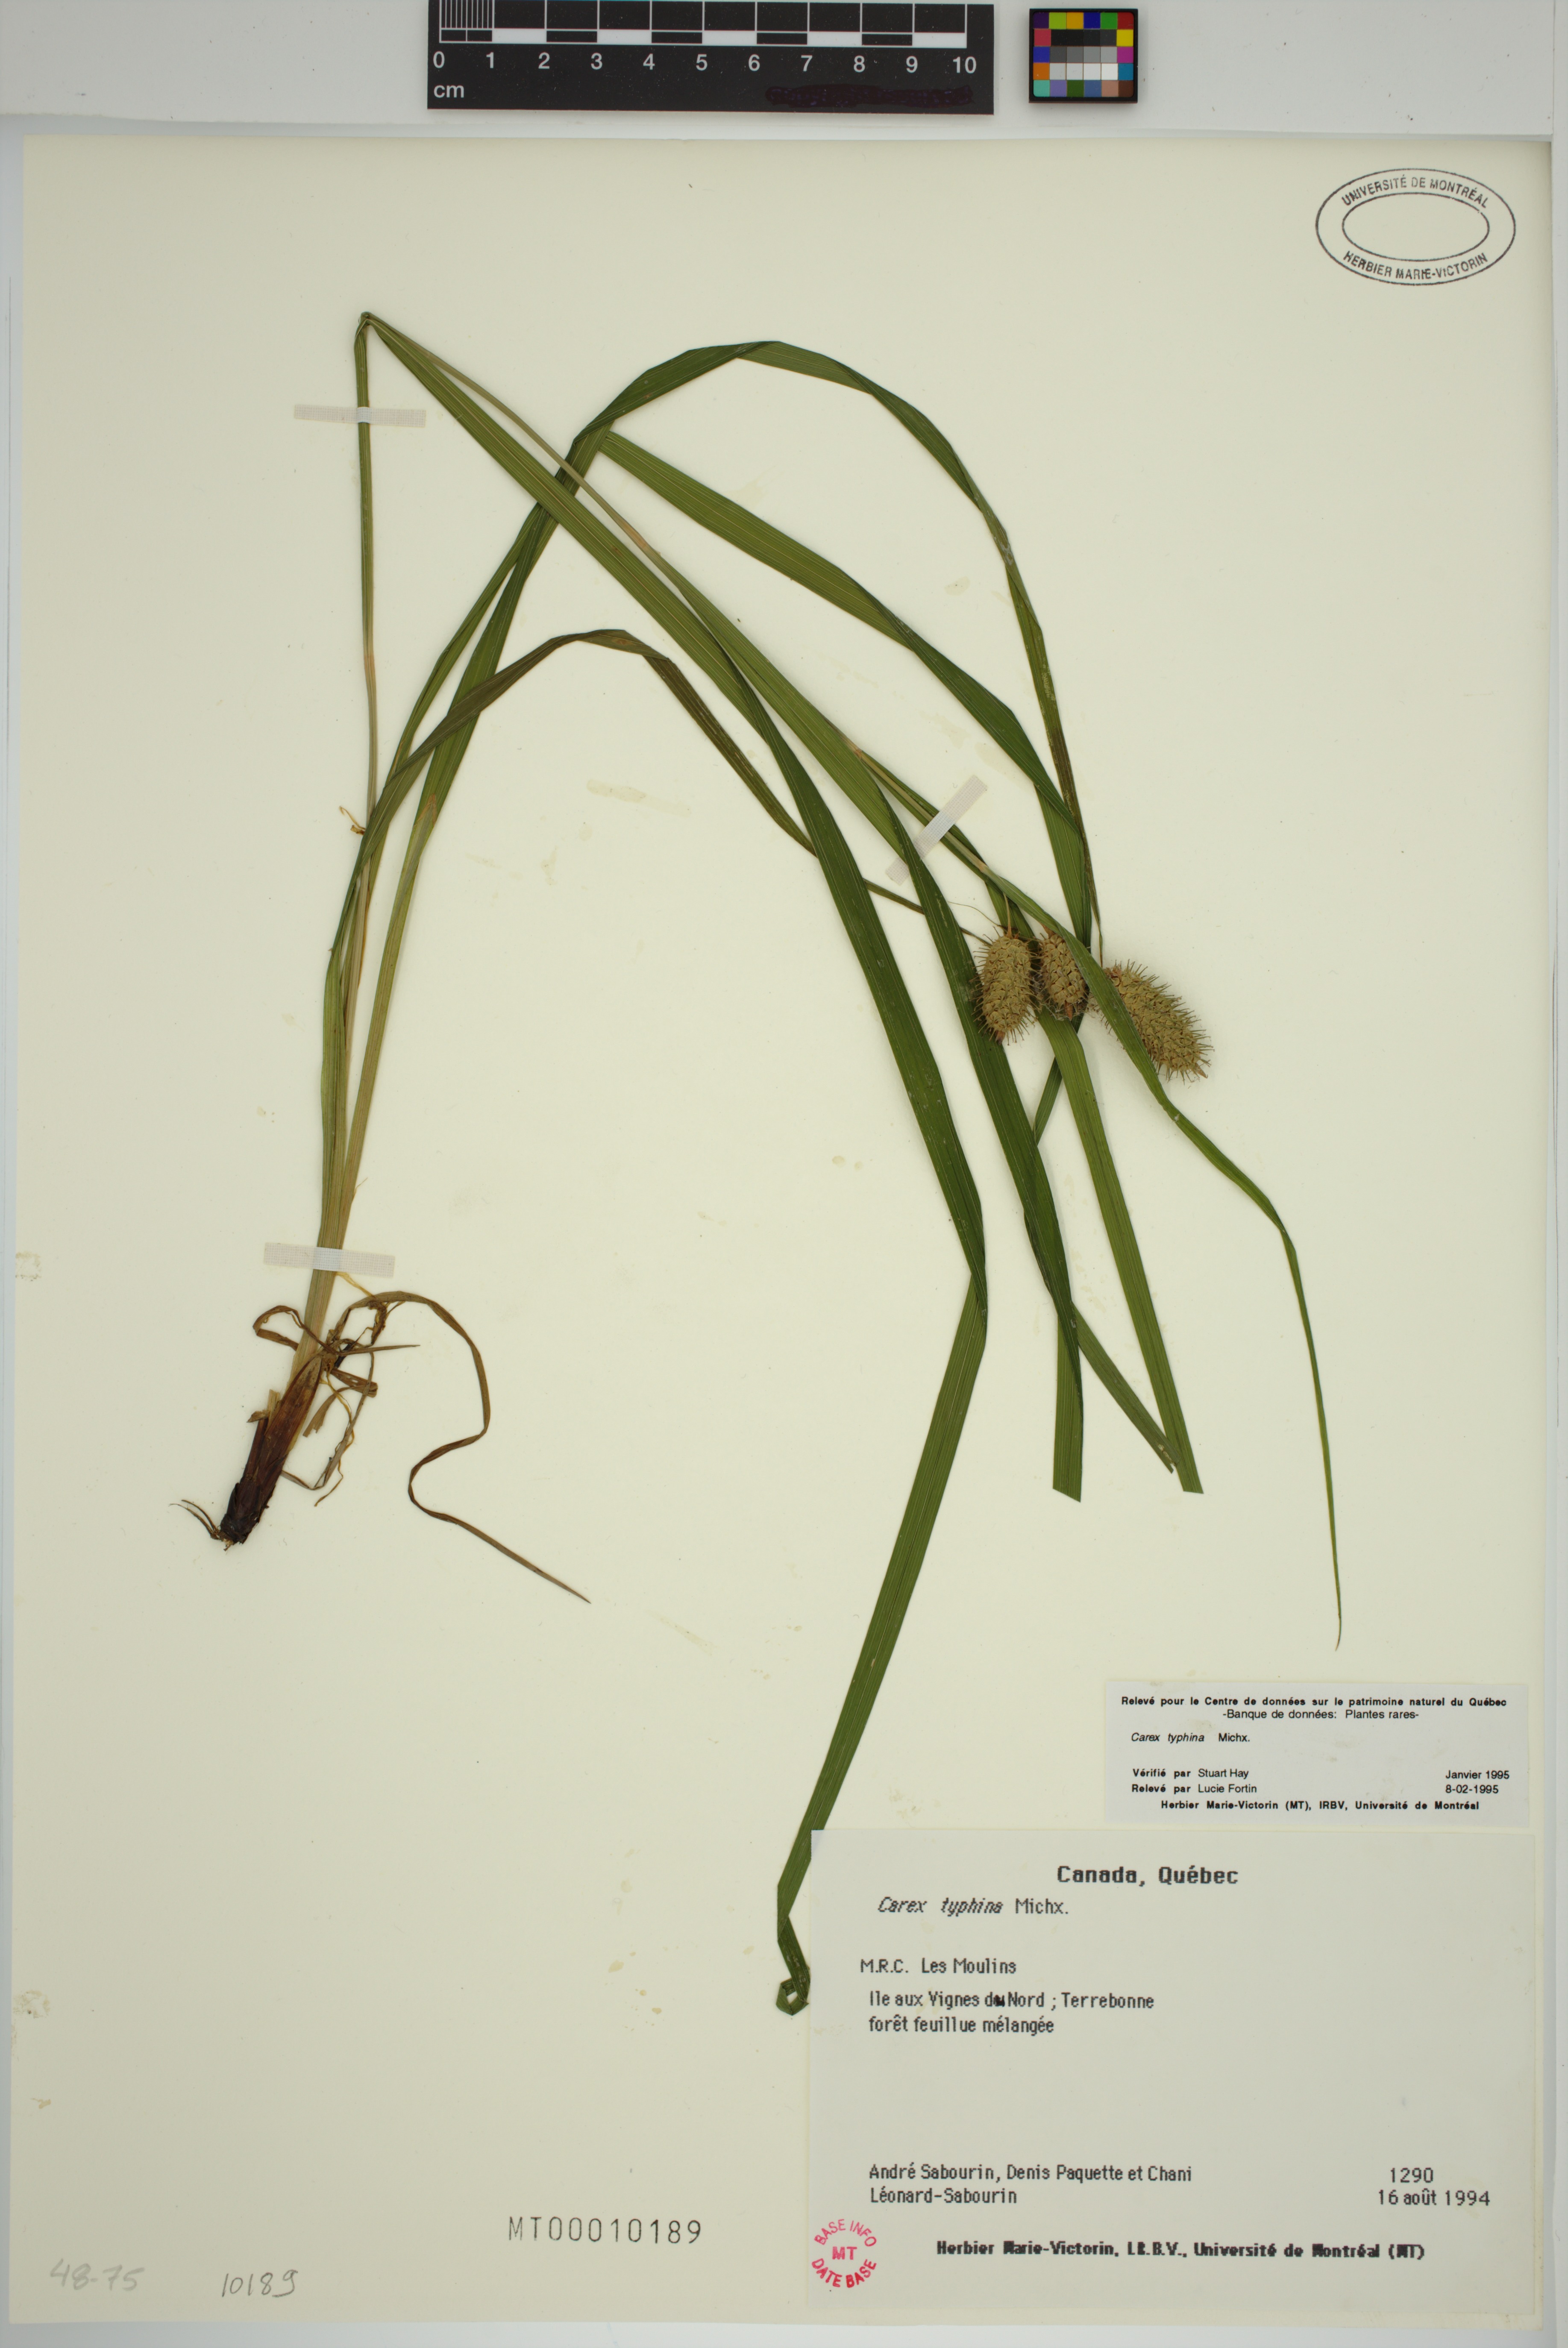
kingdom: Plantae
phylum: Tracheophyta
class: Liliopsida
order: Poales
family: Cyperaceae
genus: Carex
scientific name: Carex typhina
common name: Cattail sedge
